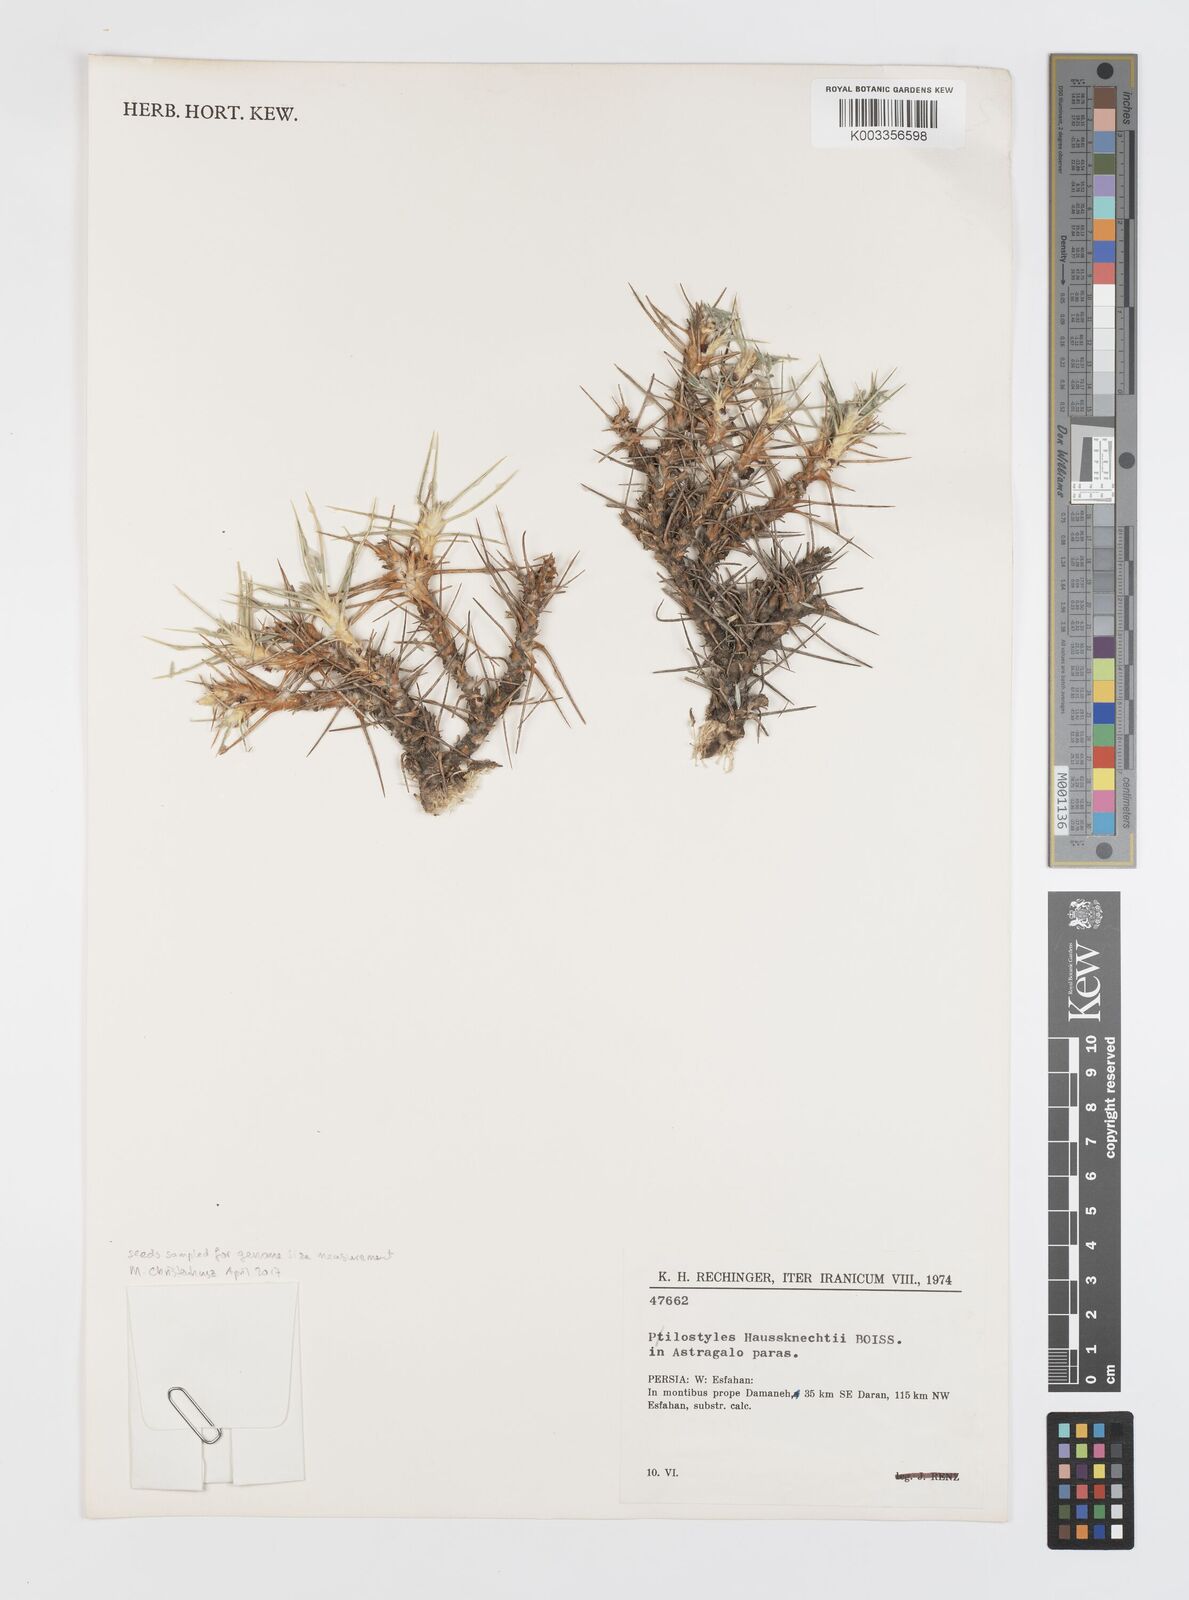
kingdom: Plantae
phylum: Tracheophyta
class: Magnoliopsida
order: Cucurbitales
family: Apodanthaceae
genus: Pilostyles
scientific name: Pilostyles haussknechtii
